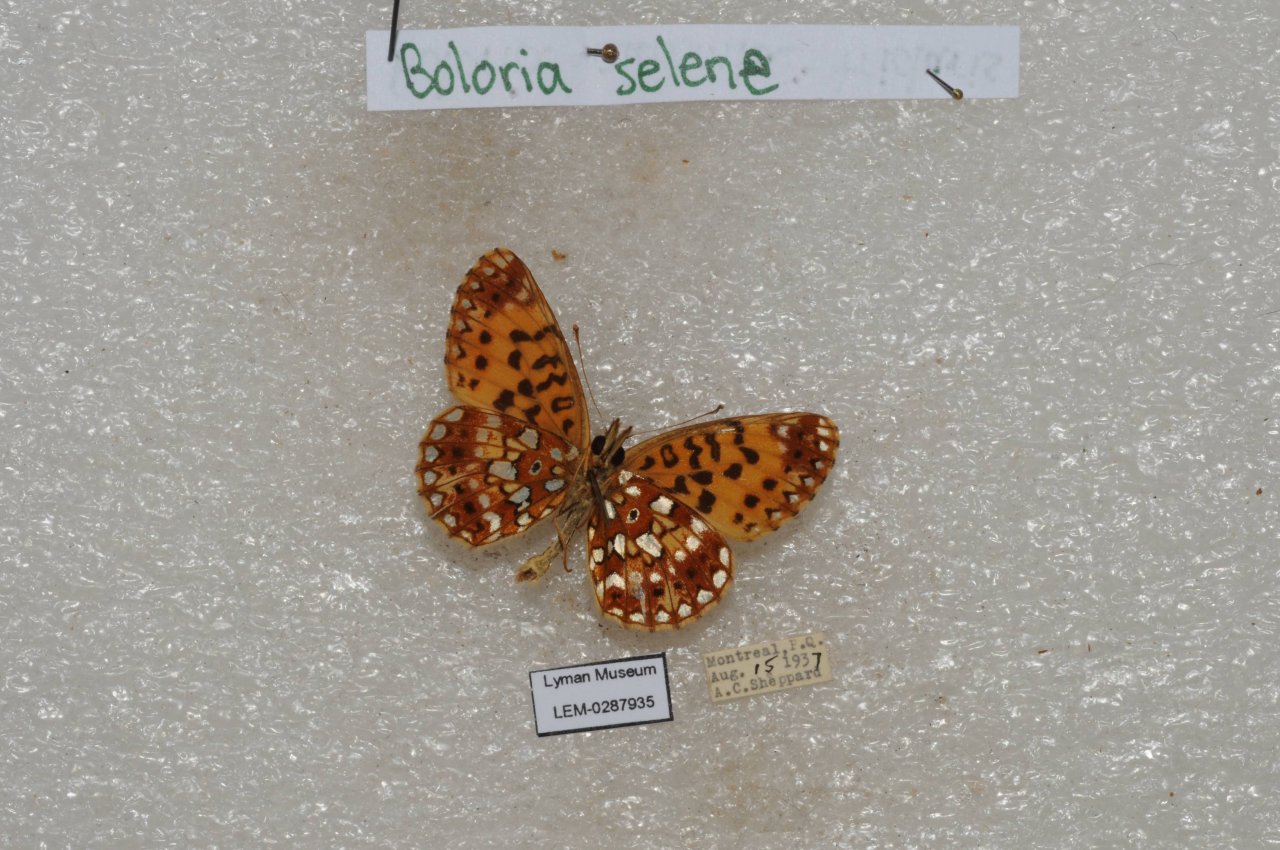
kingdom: Animalia
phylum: Arthropoda
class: Insecta
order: Lepidoptera
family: Nymphalidae
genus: Boloria
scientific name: Boloria selene
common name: Silver-bordered Fritillary
